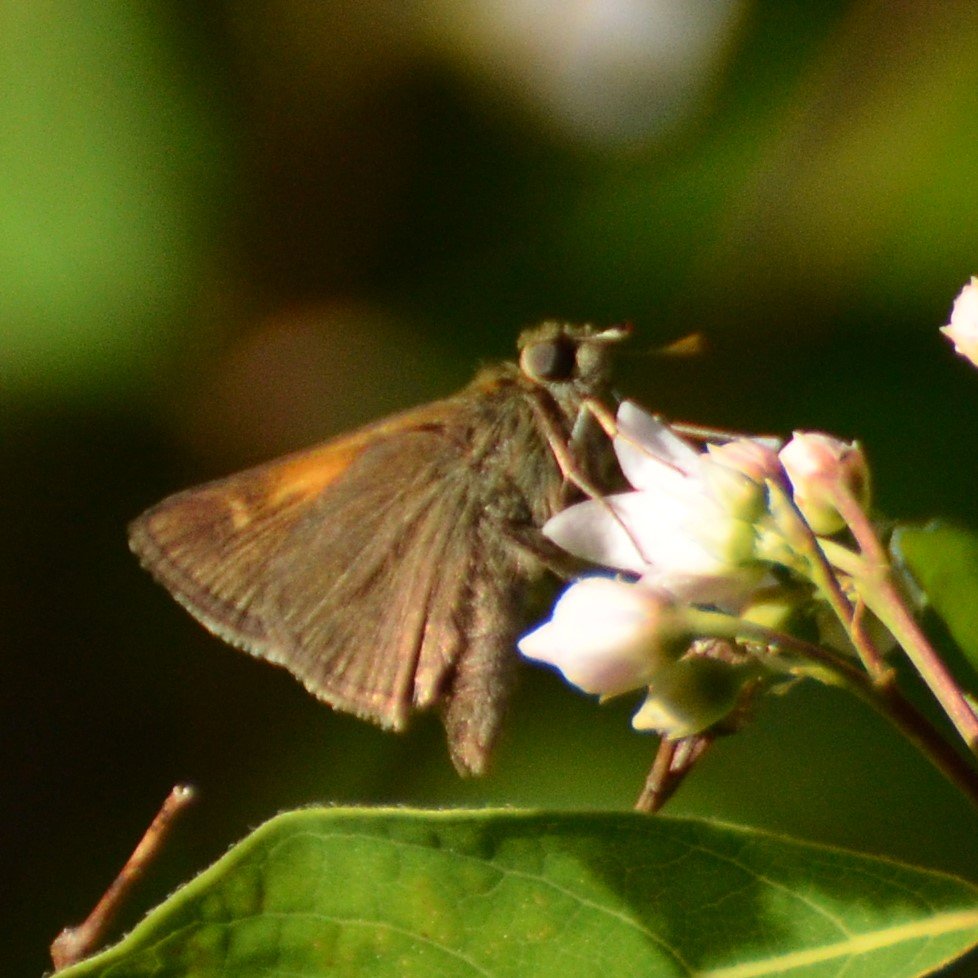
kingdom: Animalia
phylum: Arthropoda
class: Insecta
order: Lepidoptera
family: Hesperiidae
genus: Polites
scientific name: Polites themistocles
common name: Tawny-edged Skipper
